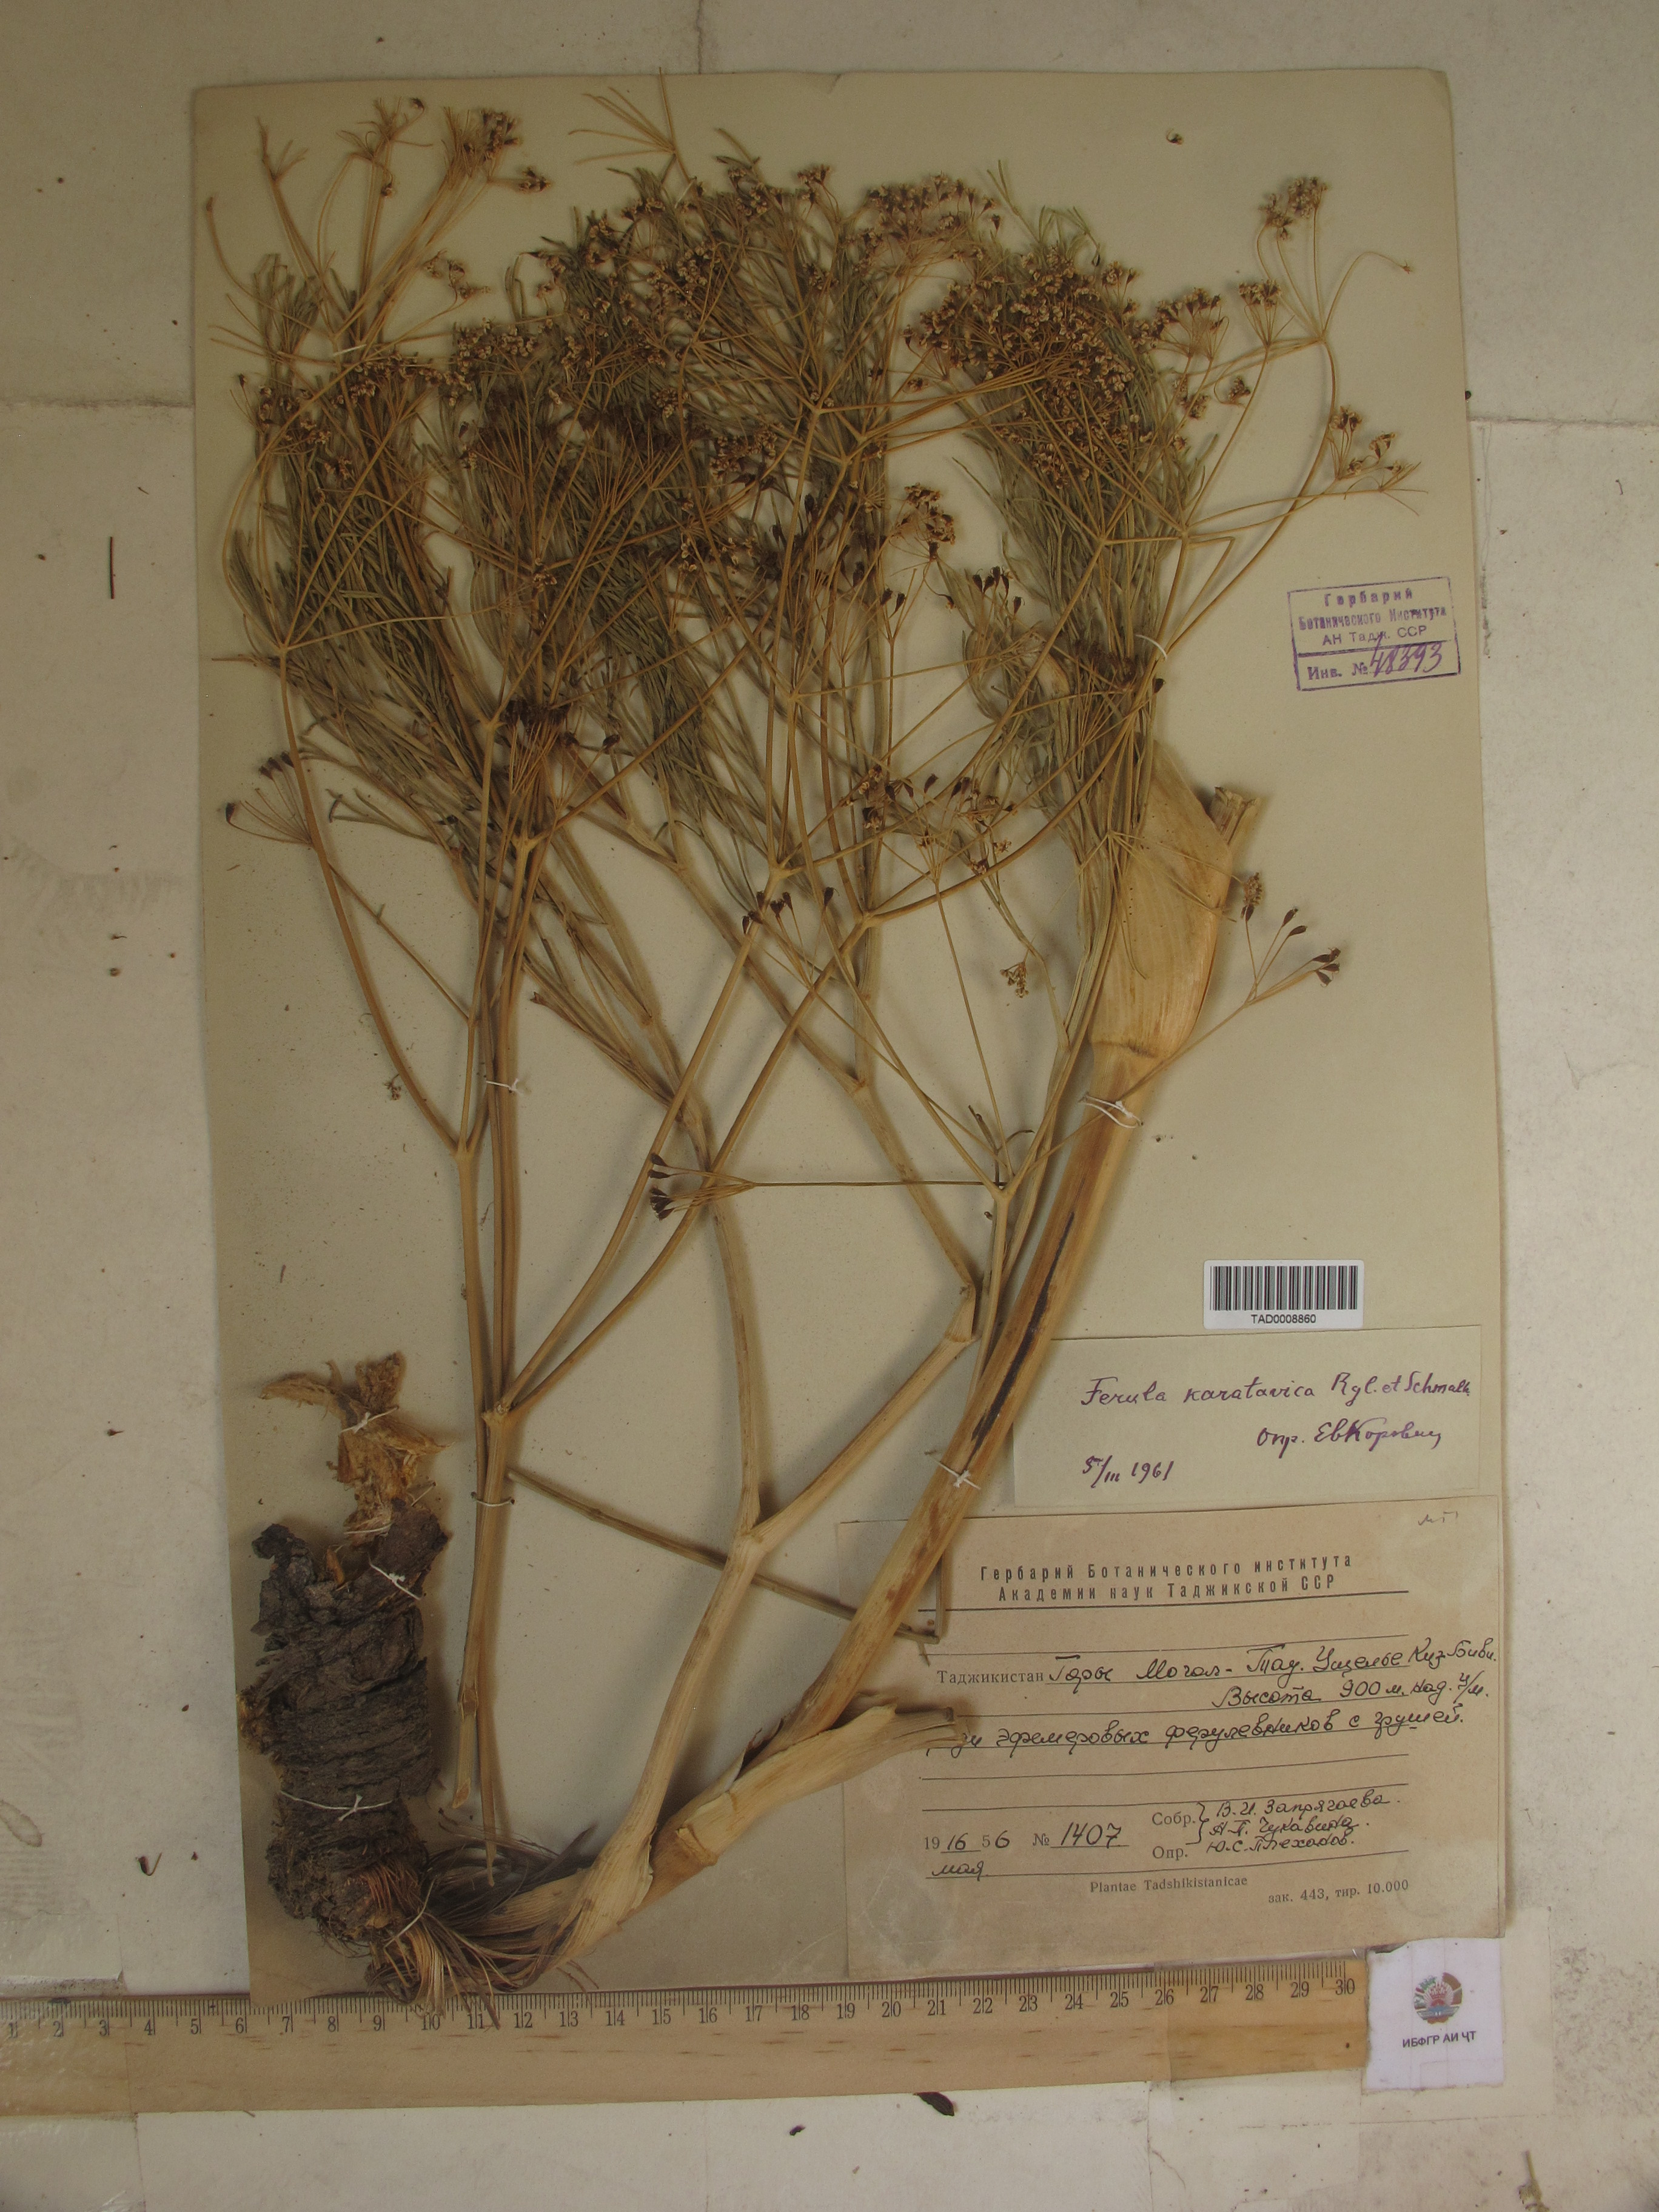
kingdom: Plantae
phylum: Tracheophyta
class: Magnoliopsida
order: Apiales
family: Apiaceae
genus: Ferula
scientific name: Ferula karatavica
